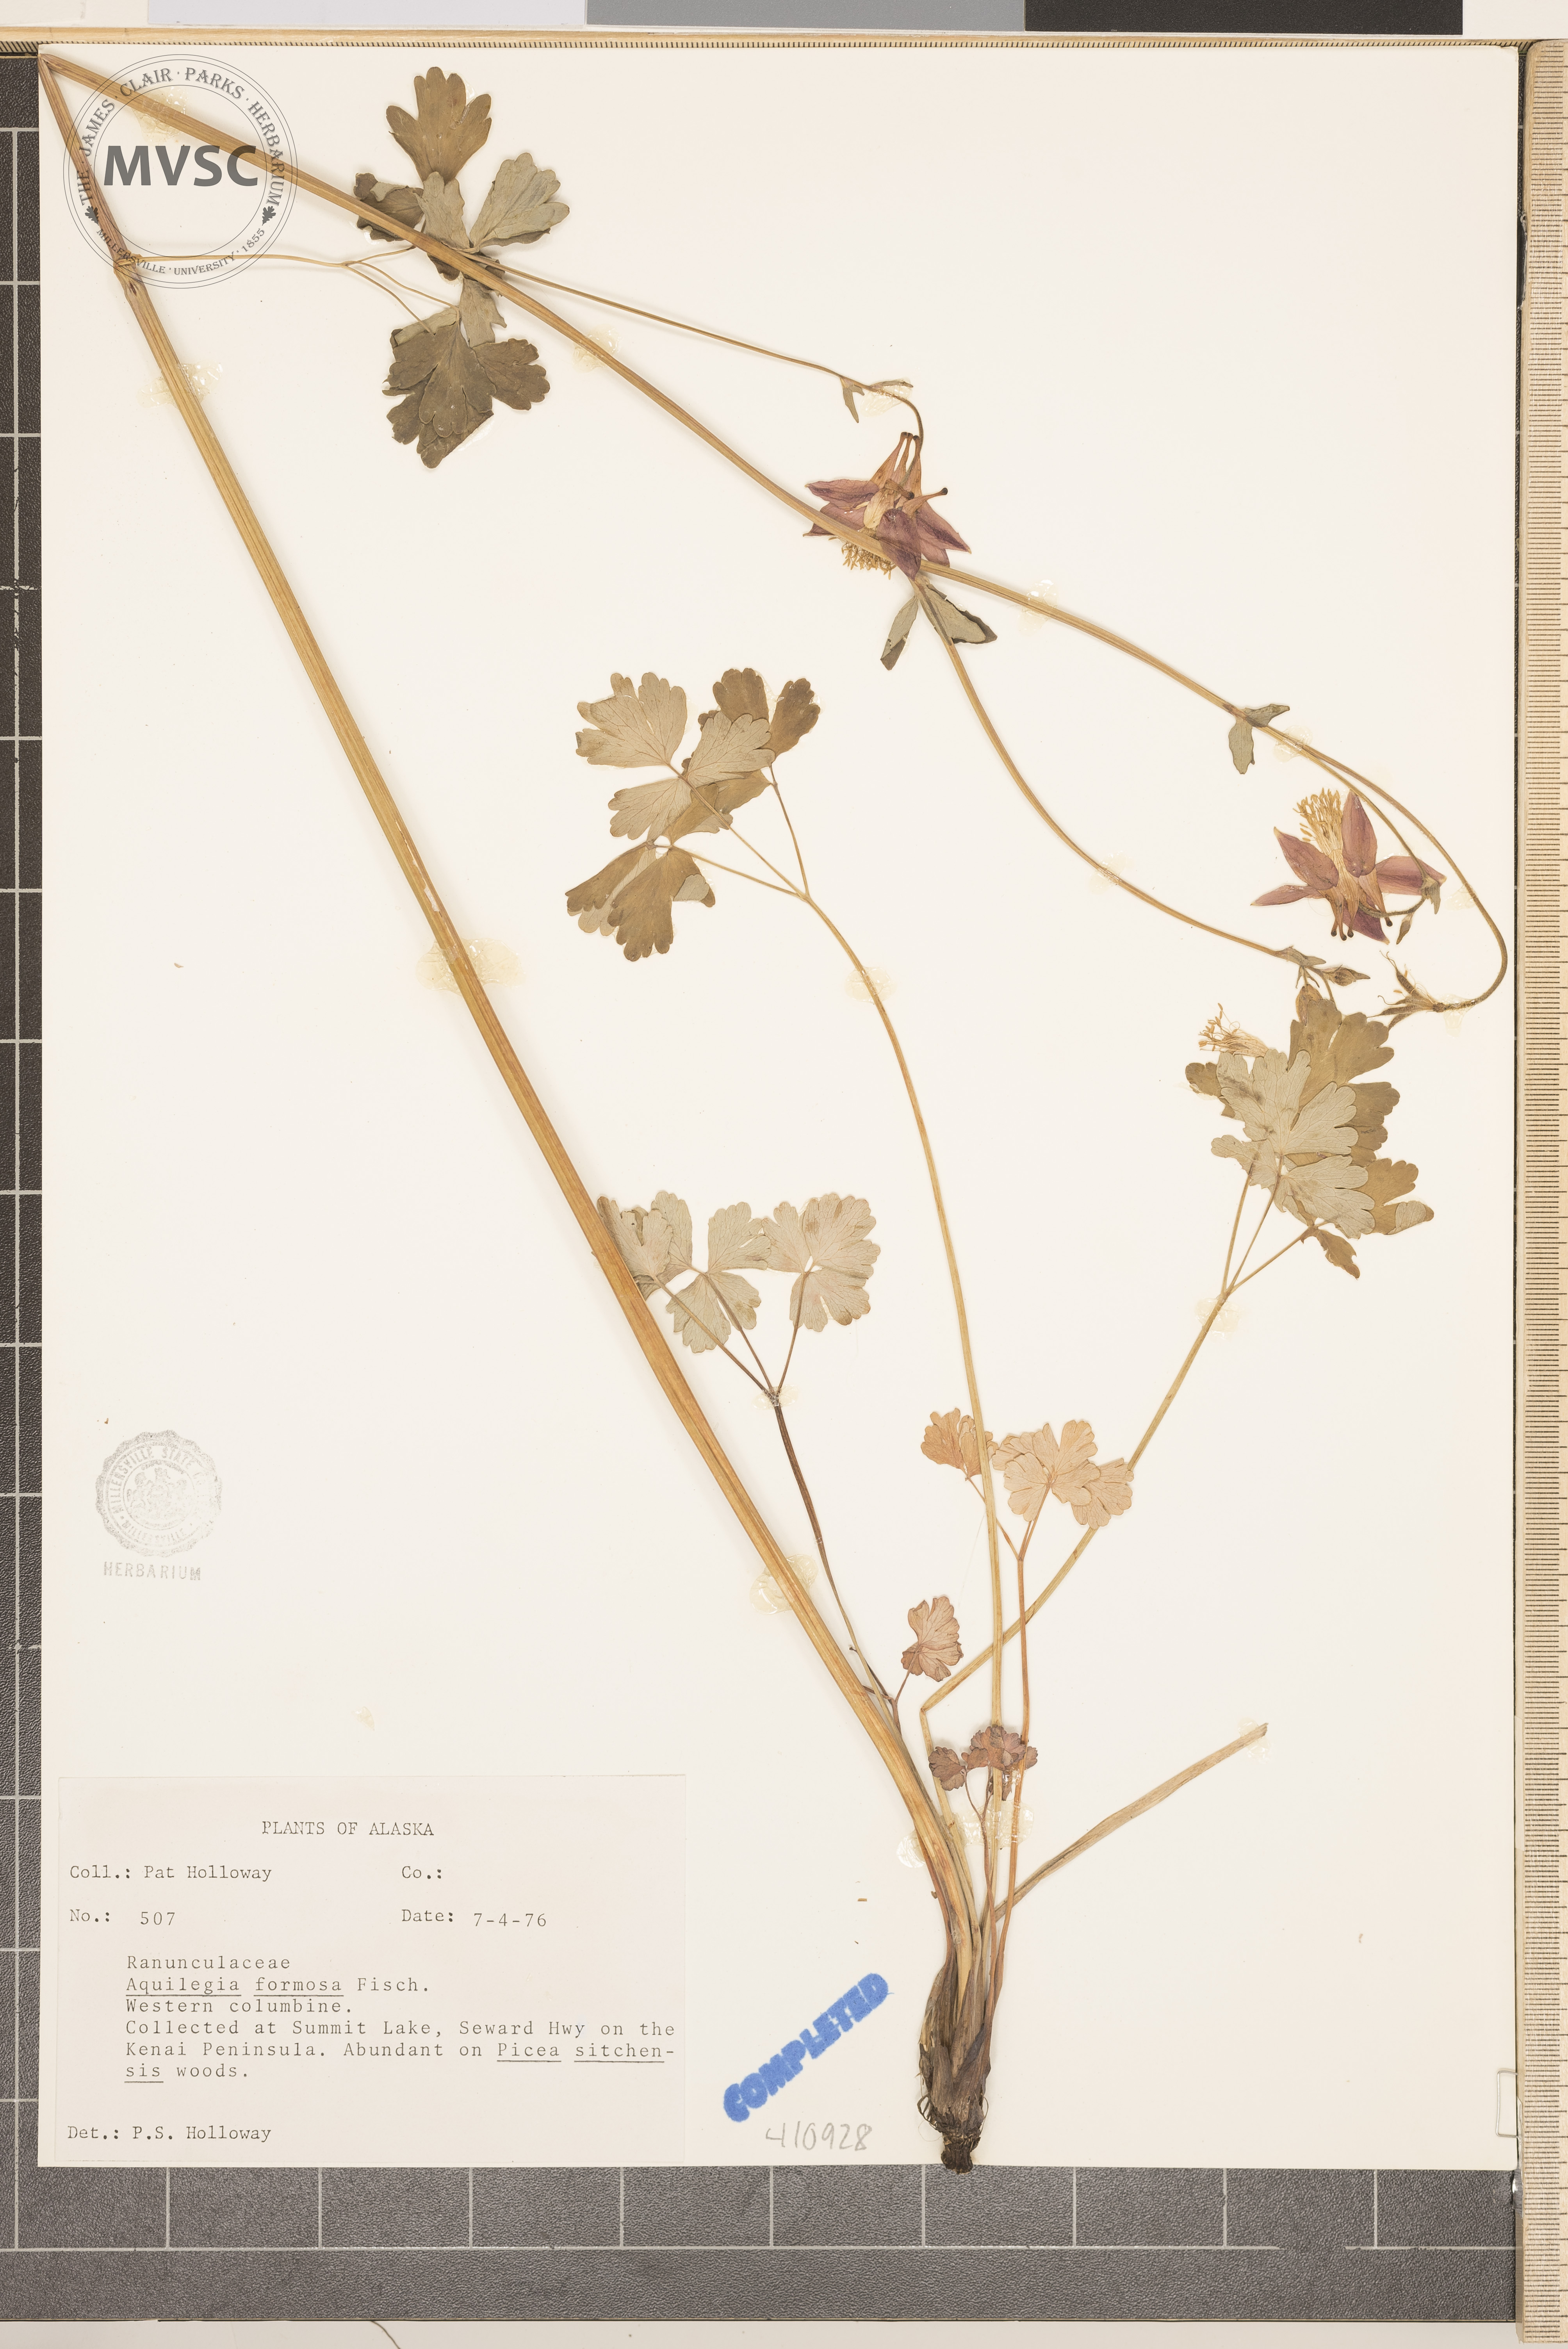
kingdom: Plantae
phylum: Tracheophyta
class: Magnoliopsida
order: Ranunculales
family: Ranunculaceae
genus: Aquilegia
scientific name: Aquilegia formosa
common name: western columbine
